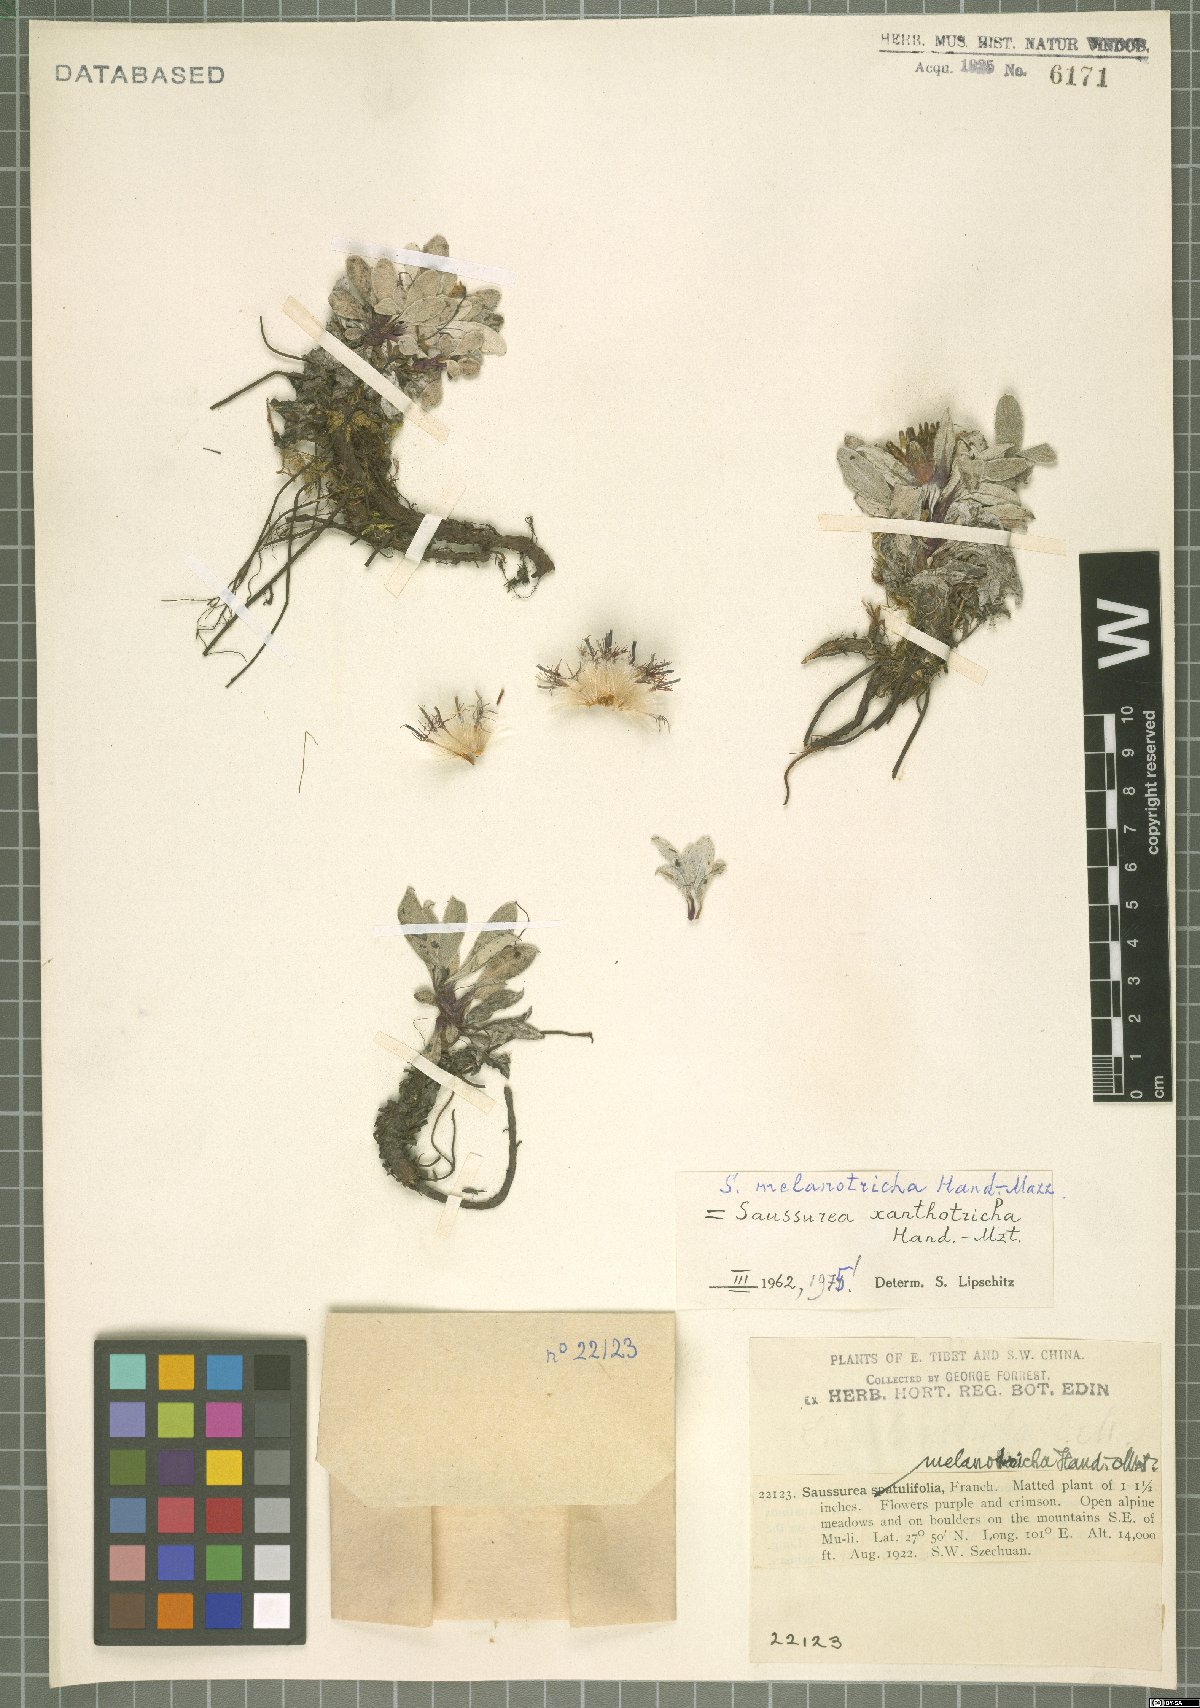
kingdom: Plantae
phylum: Tracheophyta
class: Magnoliopsida
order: Asterales
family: Asteraceae
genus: Saussurea
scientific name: Saussurea melanotricha
